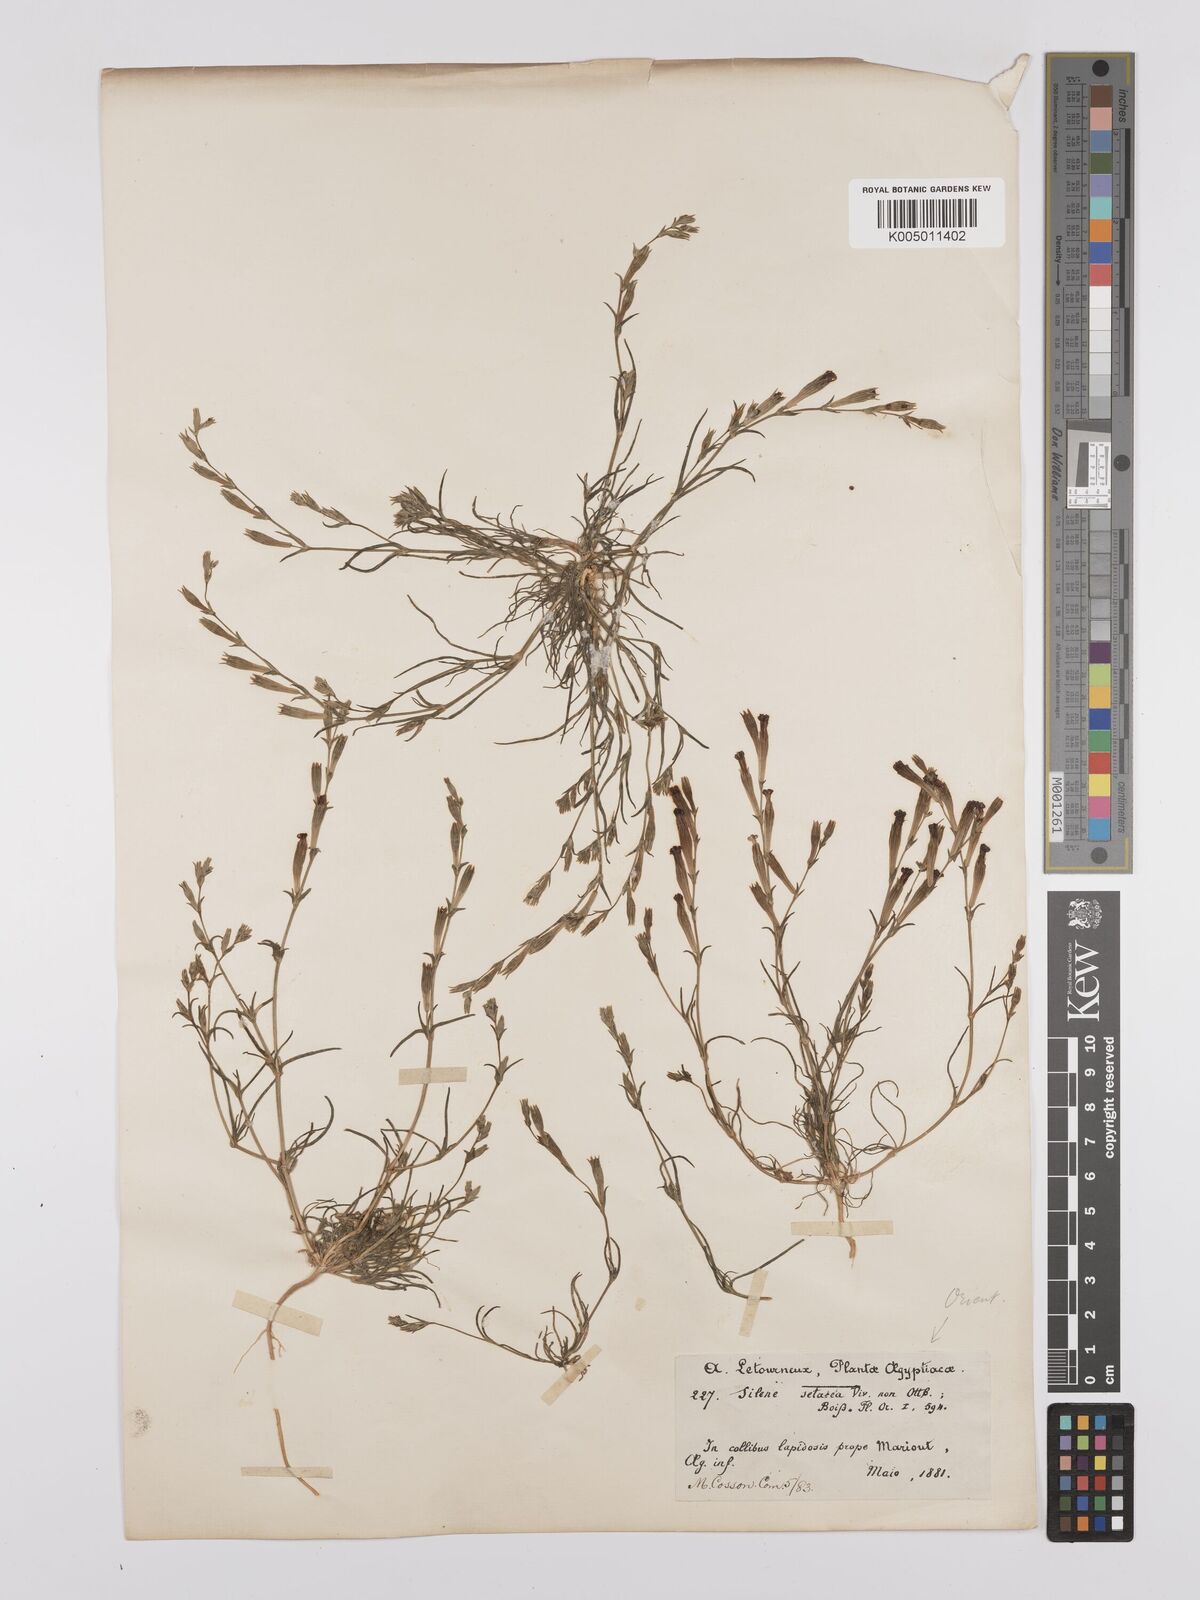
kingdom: Plantae
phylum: Tracheophyta
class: Magnoliopsida
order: Caryophyllales
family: Caryophyllaceae
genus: Silene
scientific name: Silene vivianii
